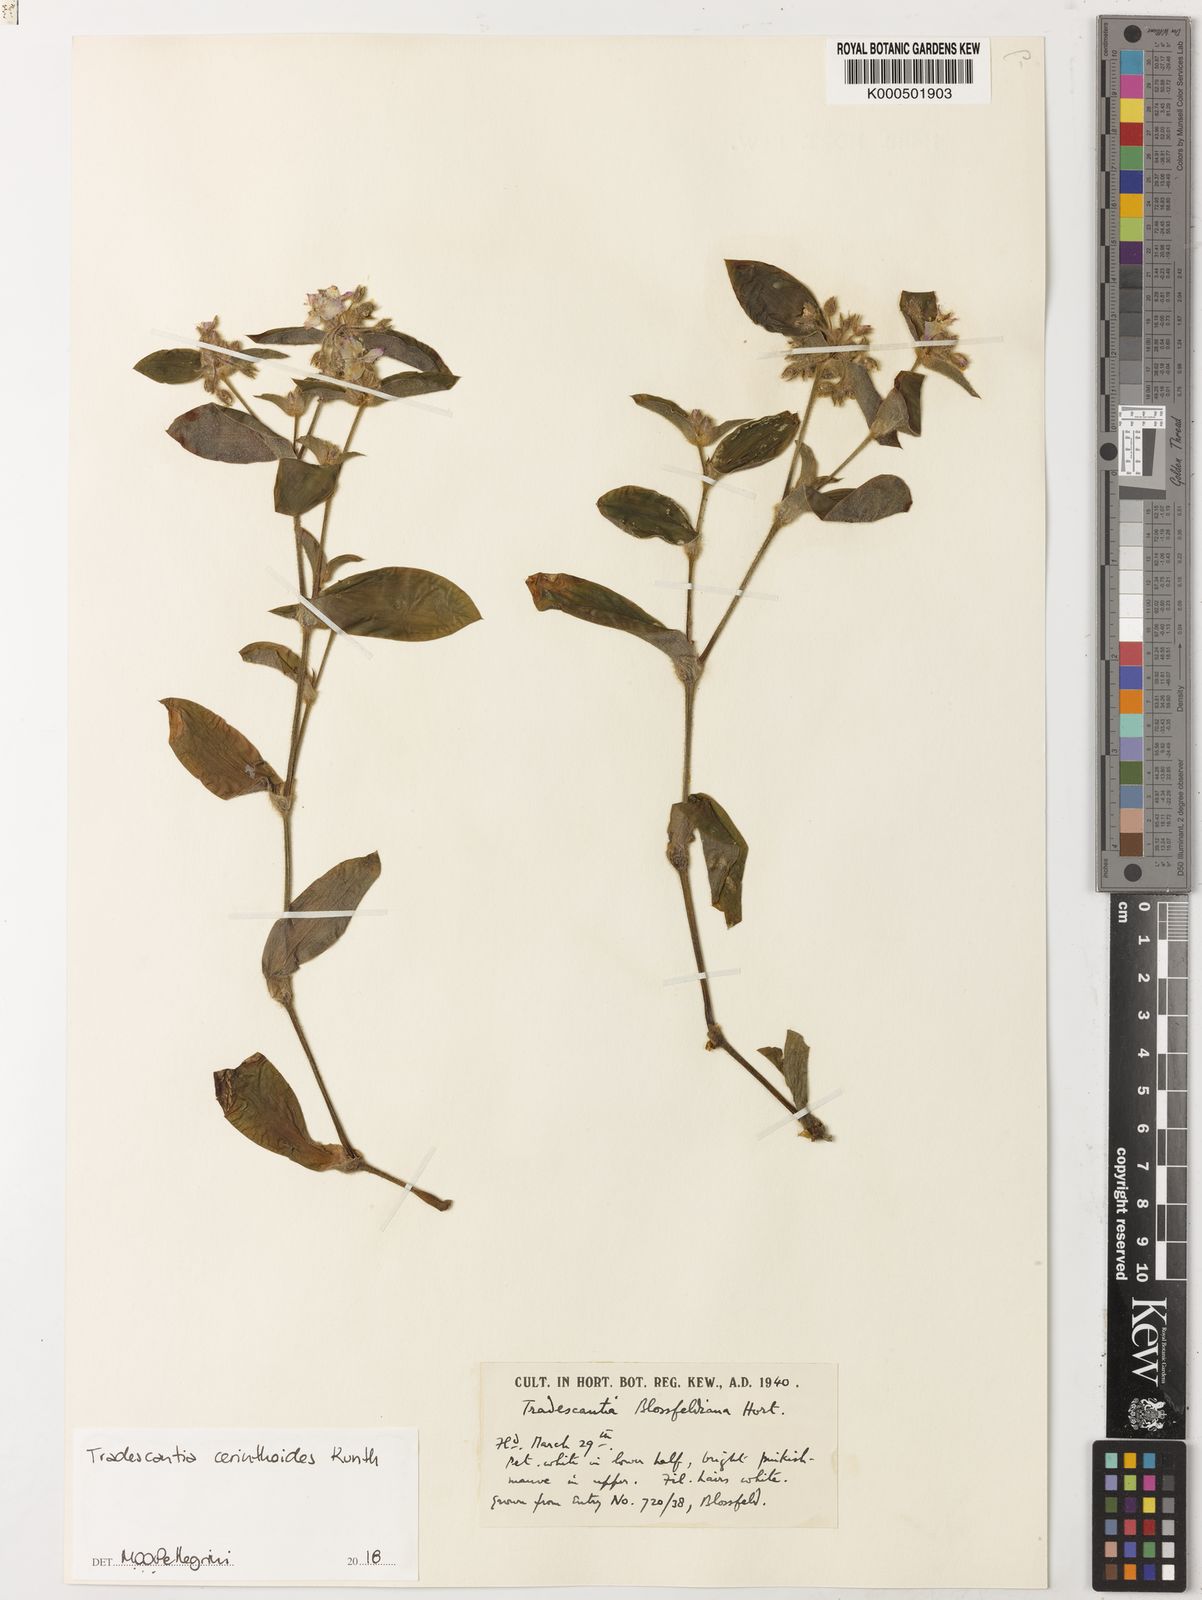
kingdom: Plantae
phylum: Tracheophyta
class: Liliopsida
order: Commelinales
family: Commelinaceae
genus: Tradescantia
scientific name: Tradescantia cerinthoides
